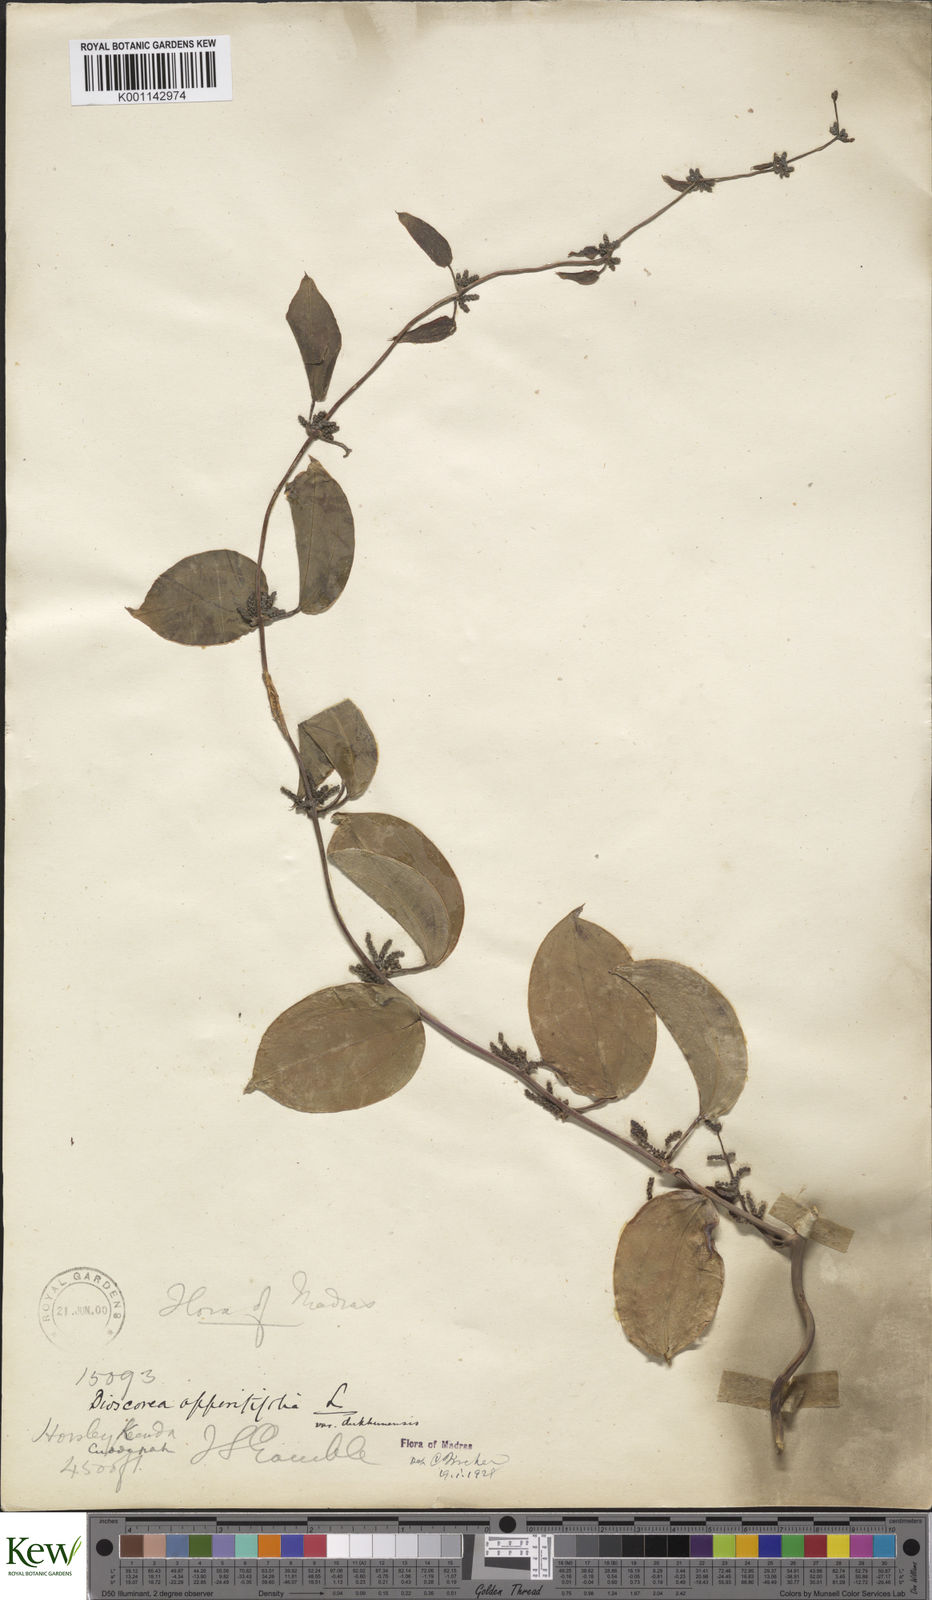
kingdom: Plantae
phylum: Tracheophyta
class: Liliopsida
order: Dioscoreales
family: Dioscoreaceae
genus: Dioscorea
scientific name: Dioscorea oppositifolia
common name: Chinese yam
